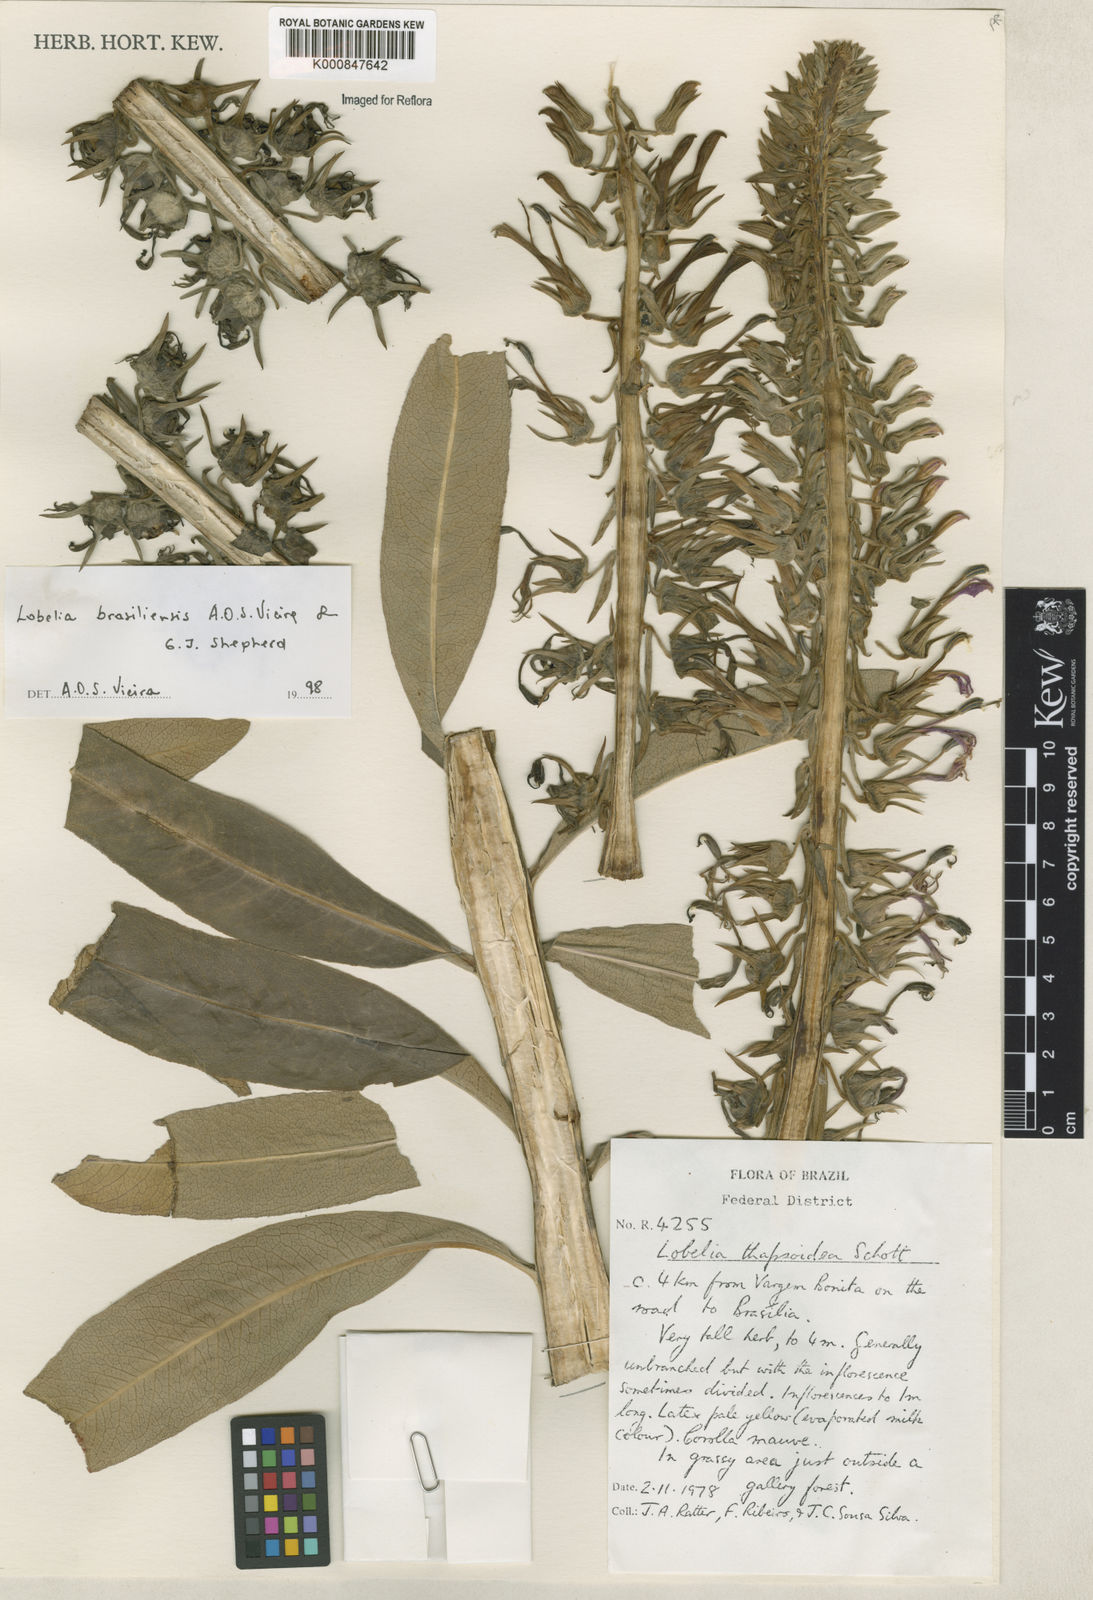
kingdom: Plantae
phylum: Tracheophyta
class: Magnoliopsida
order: Asterales
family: Campanulaceae
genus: Lobelia
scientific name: Lobelia brasiliensis
